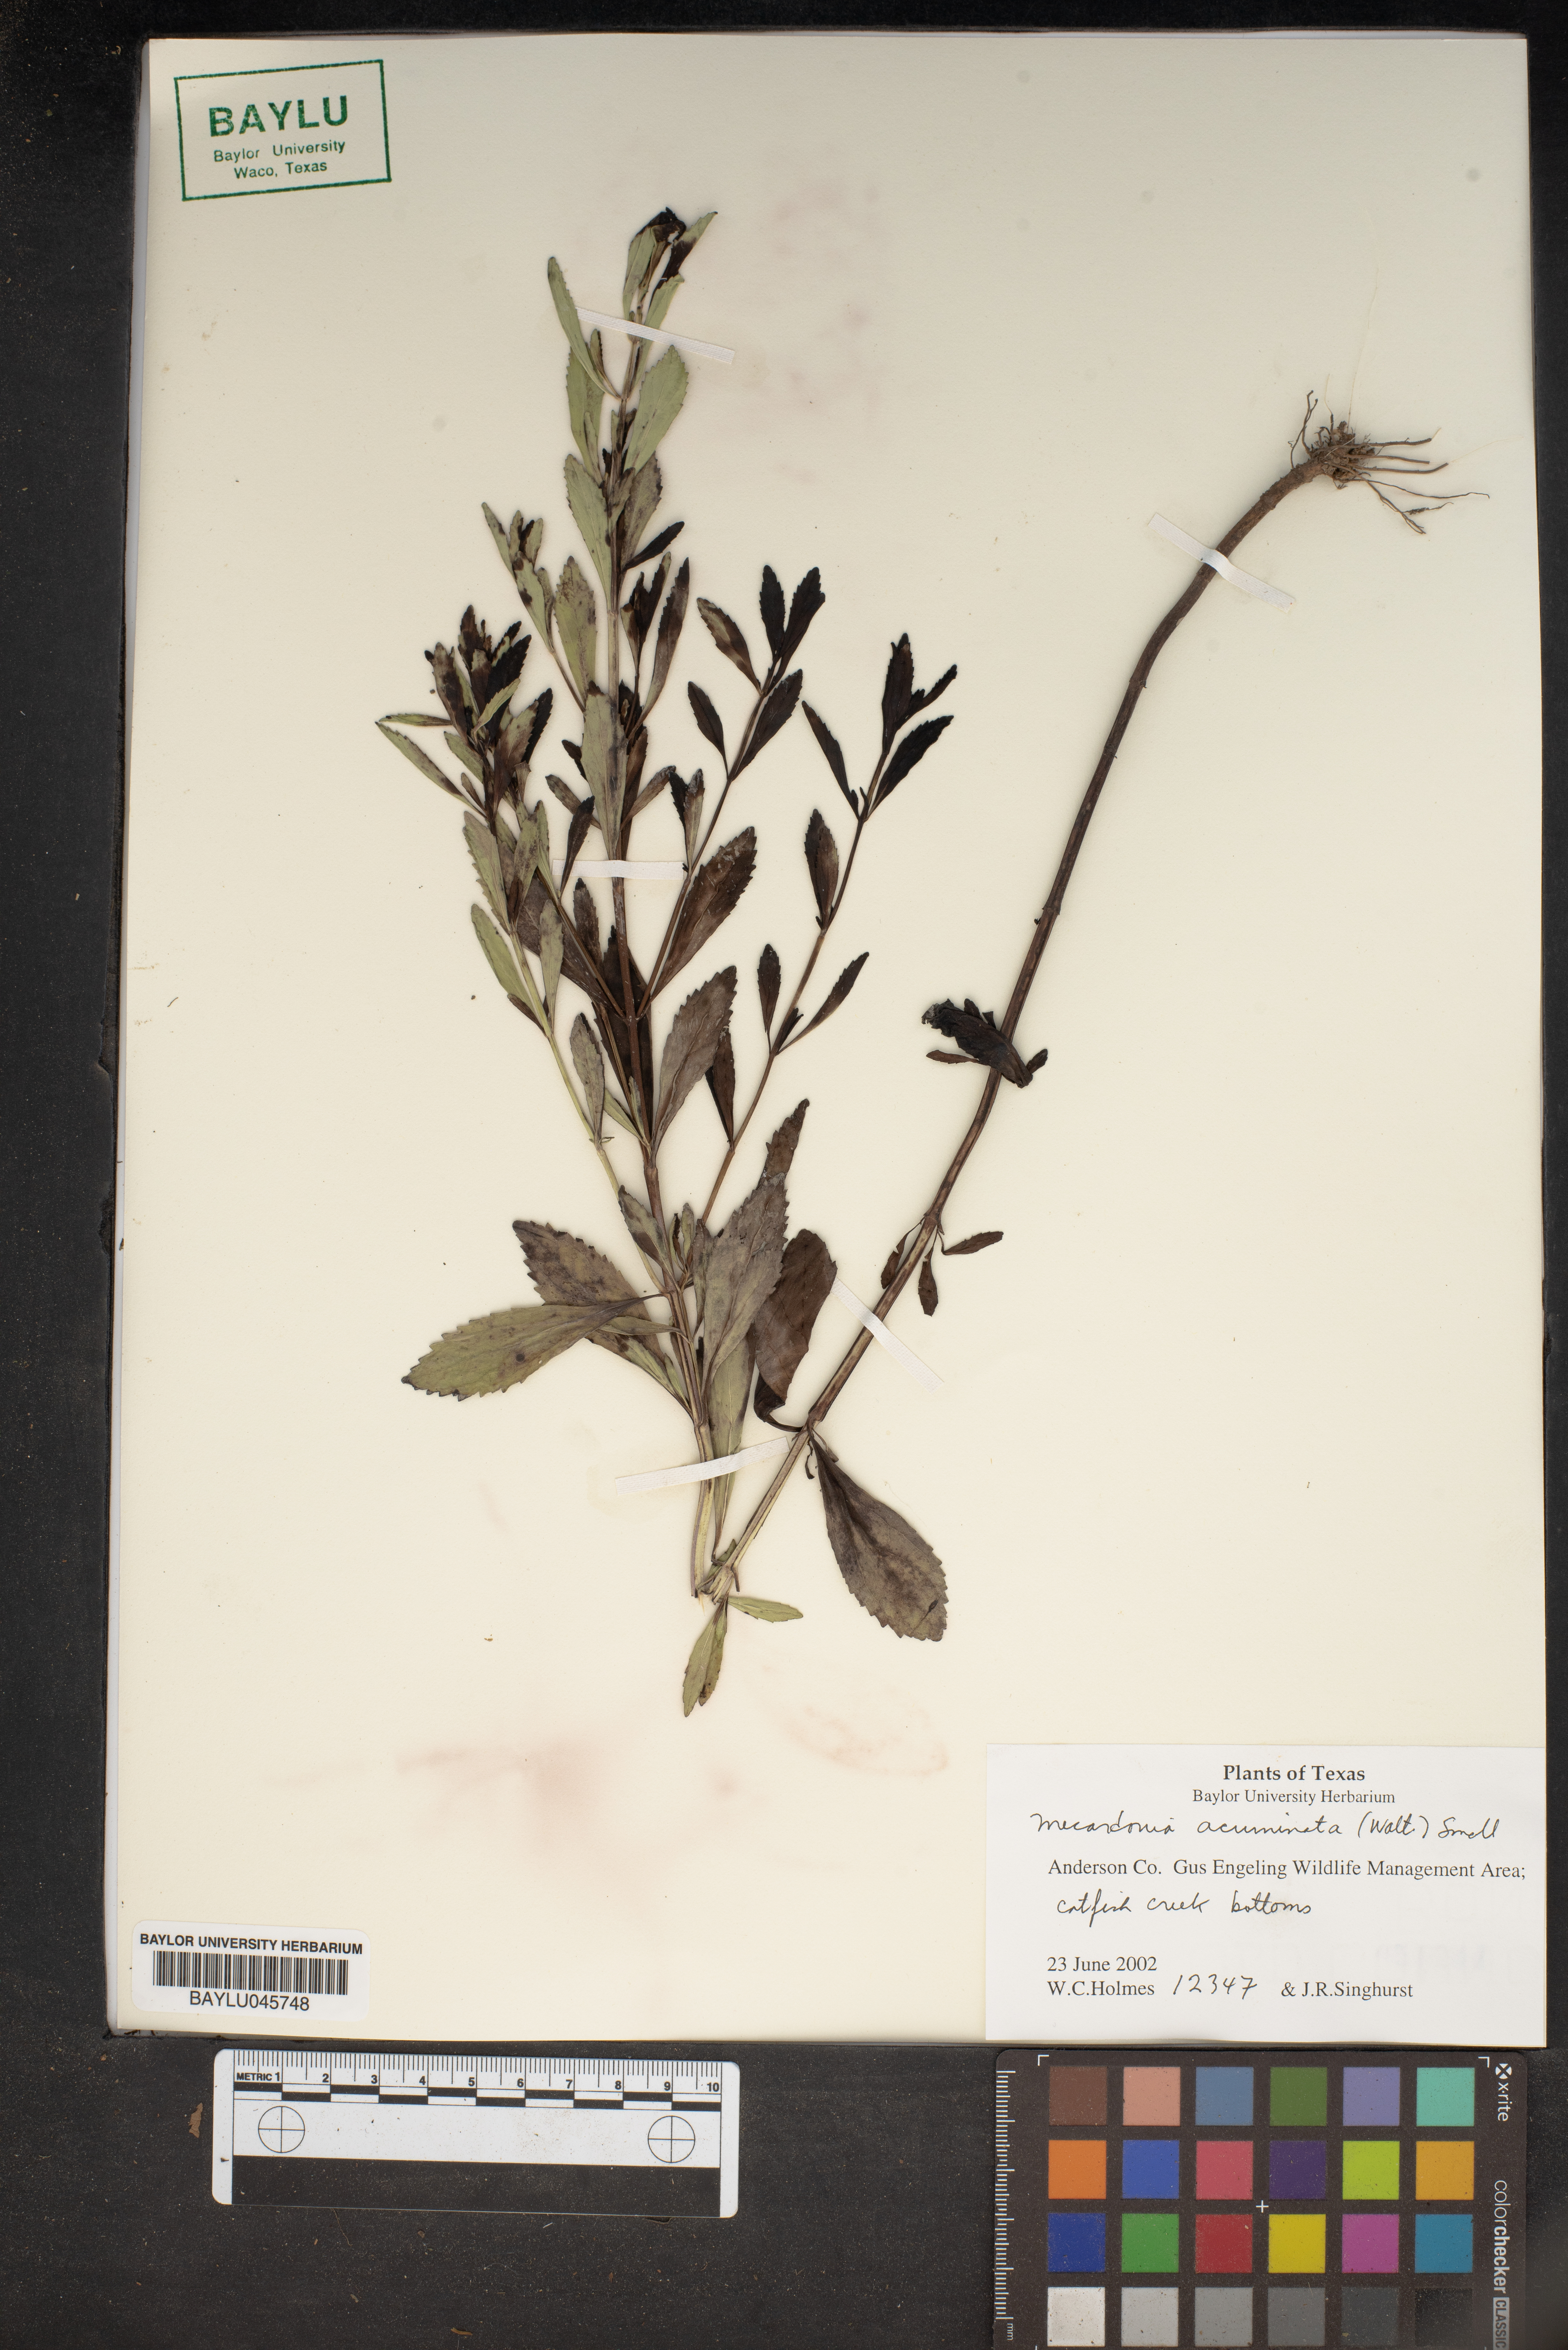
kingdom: Plantae
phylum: Tracheophyta
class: Magnoliopsida
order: Lamiales
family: Plantaginaceae
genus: Mecardonia
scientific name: Mecardonia acuminata
